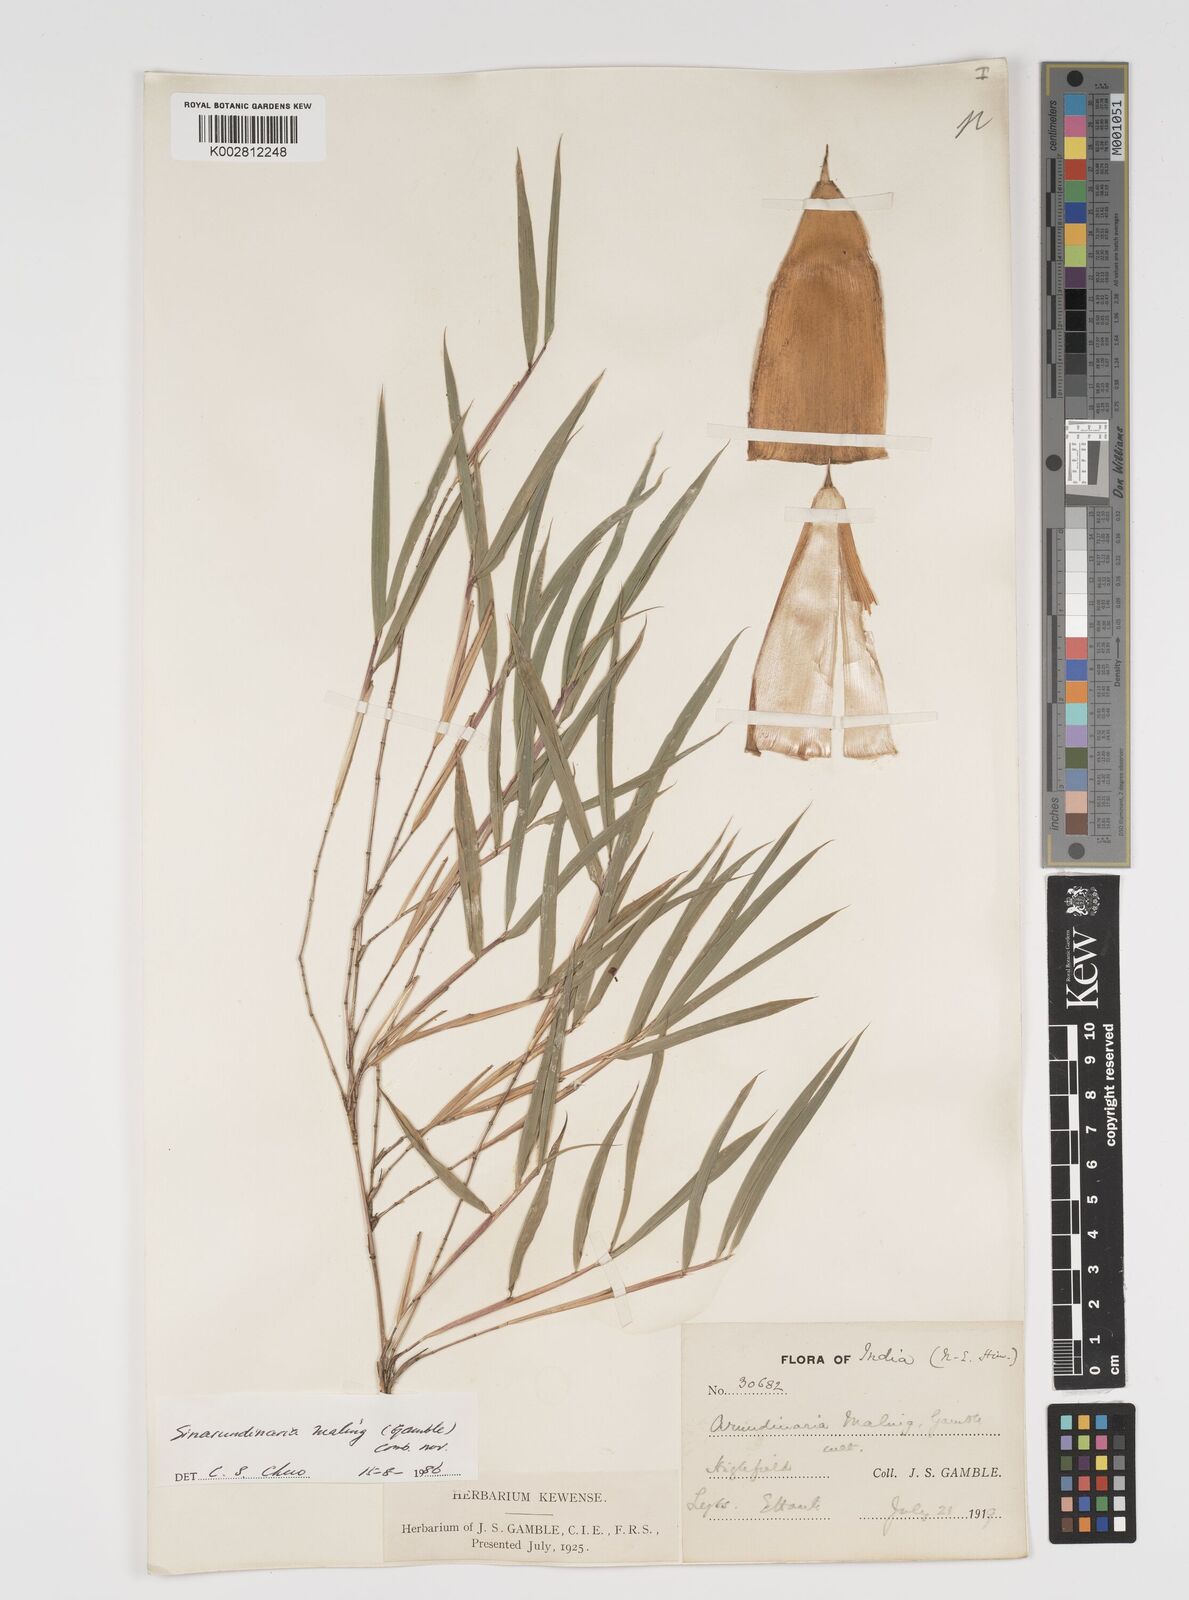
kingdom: Plantae
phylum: Tracheophyta
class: Liliopsida
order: Poales
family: Poaceae
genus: Yushania
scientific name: Yushania maling
